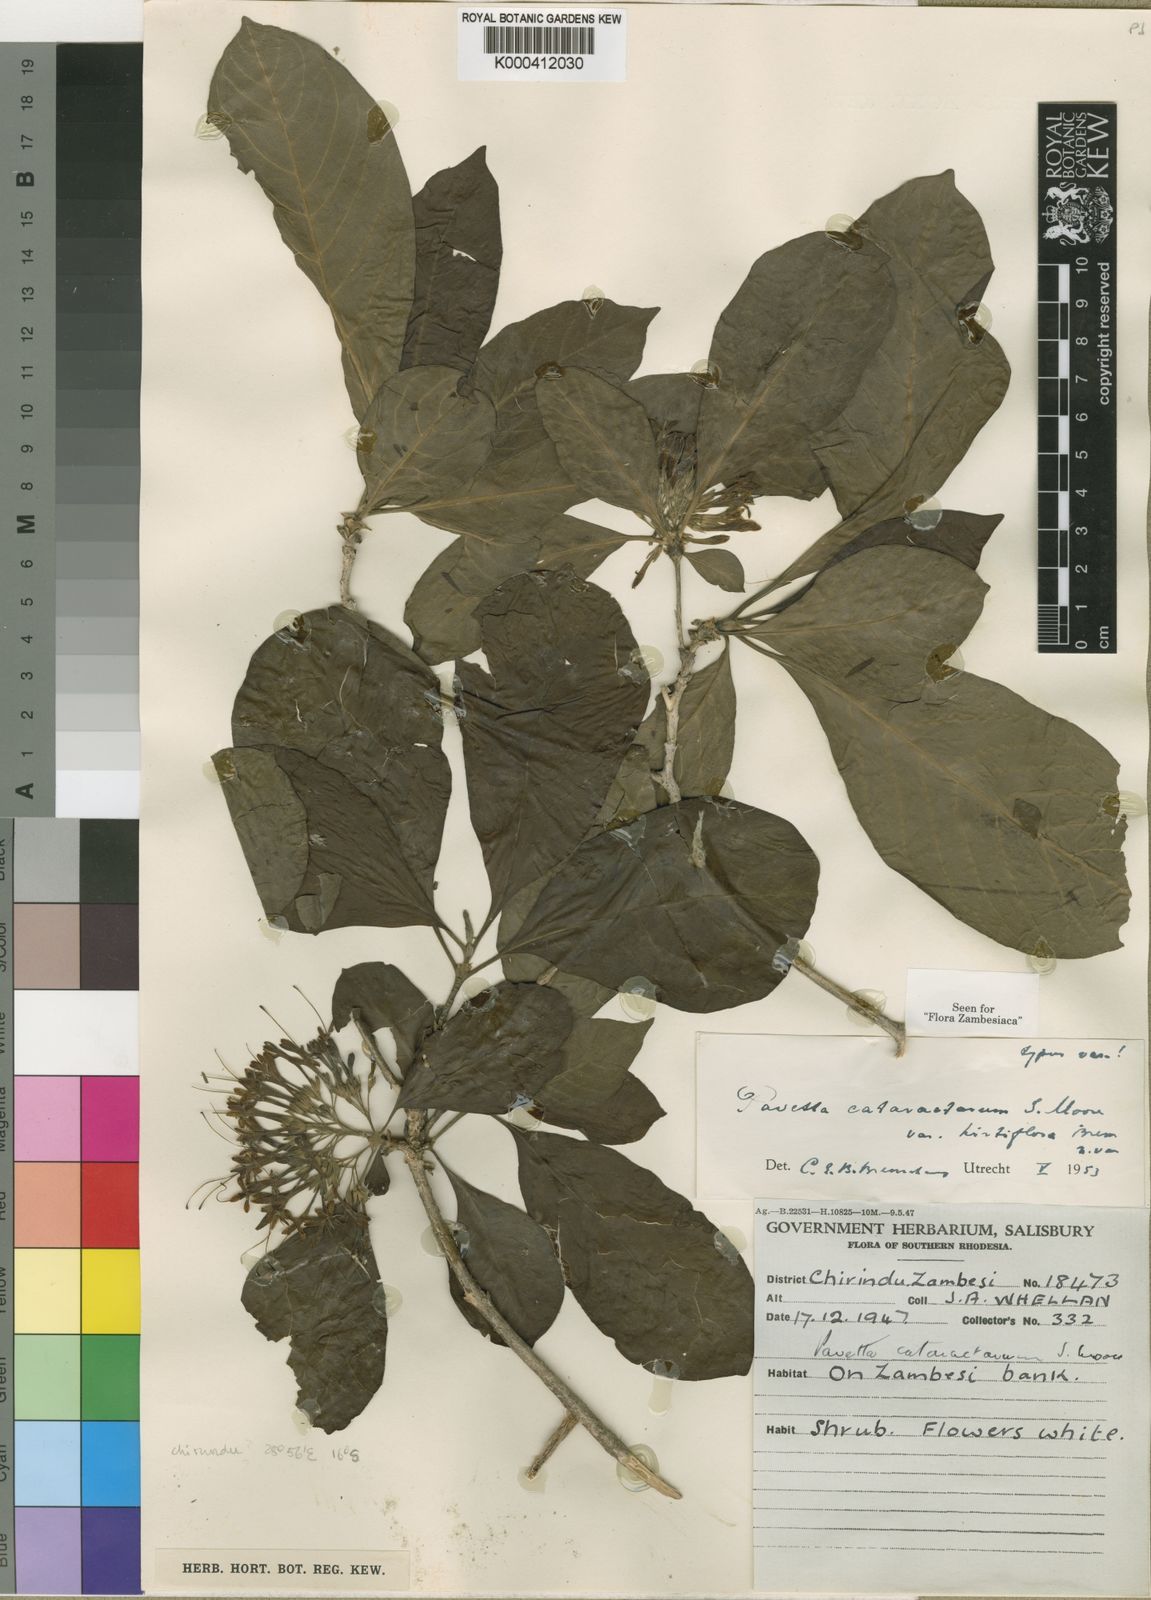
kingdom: Plantae
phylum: Tracheophyta
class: Magnoliopsida
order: Gentianales
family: Rubiaceae
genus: Pavetta
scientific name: Pavetta cataractarum
